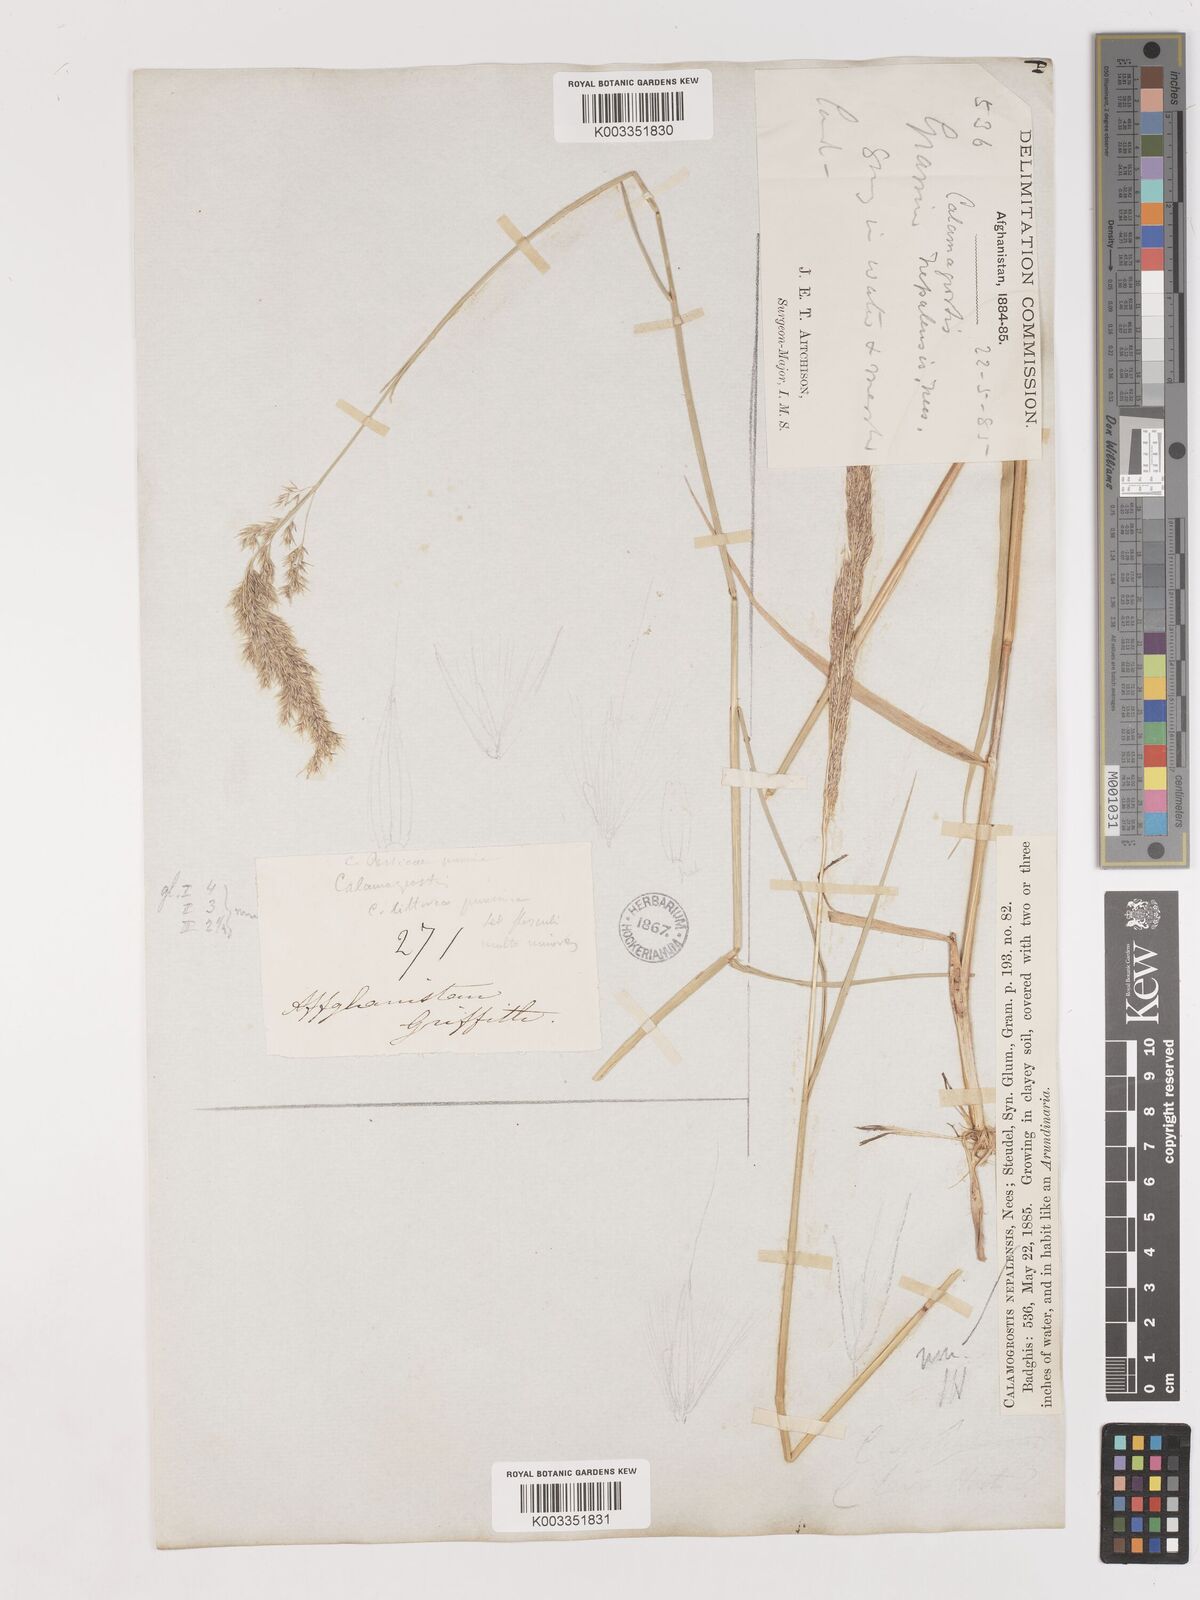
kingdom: Plantae
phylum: Tracheophyta
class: Liliopsida
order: Poales
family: Poaceae
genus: Calamagrostis
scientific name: Calamagrostis pseudophragmites
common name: Coastal small-reed
